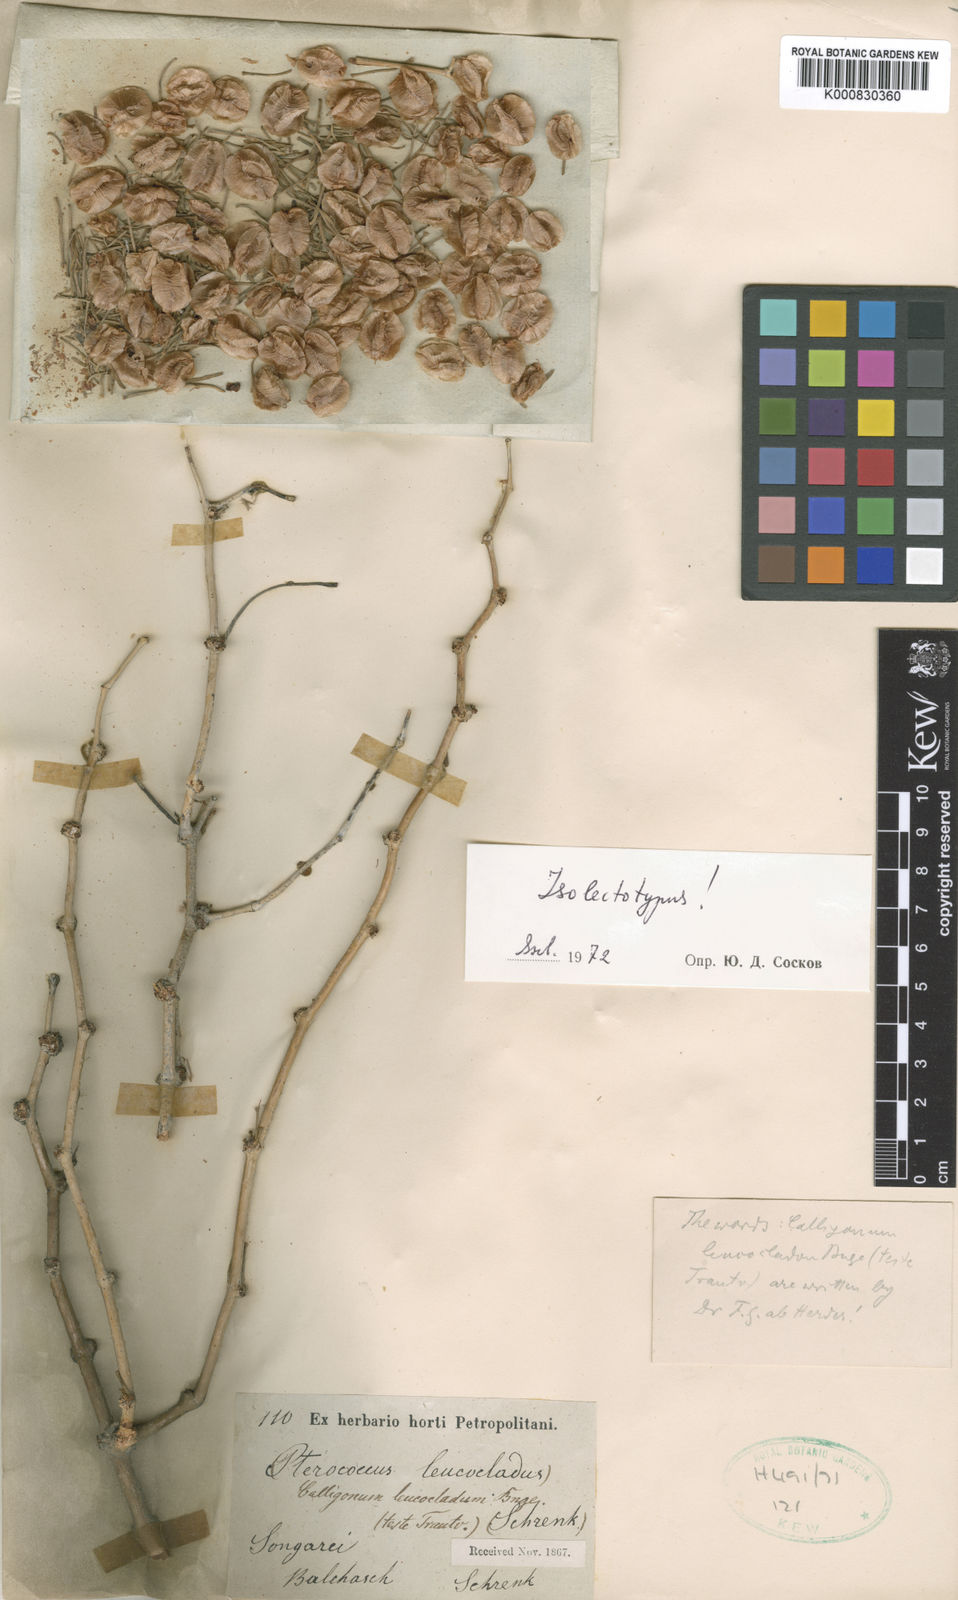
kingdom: Plantae
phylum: Tracheophyta
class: Magnoliopsida
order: Caryophyllales
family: Polygonaceae
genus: Calligonum
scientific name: Calligonum leucocladum
